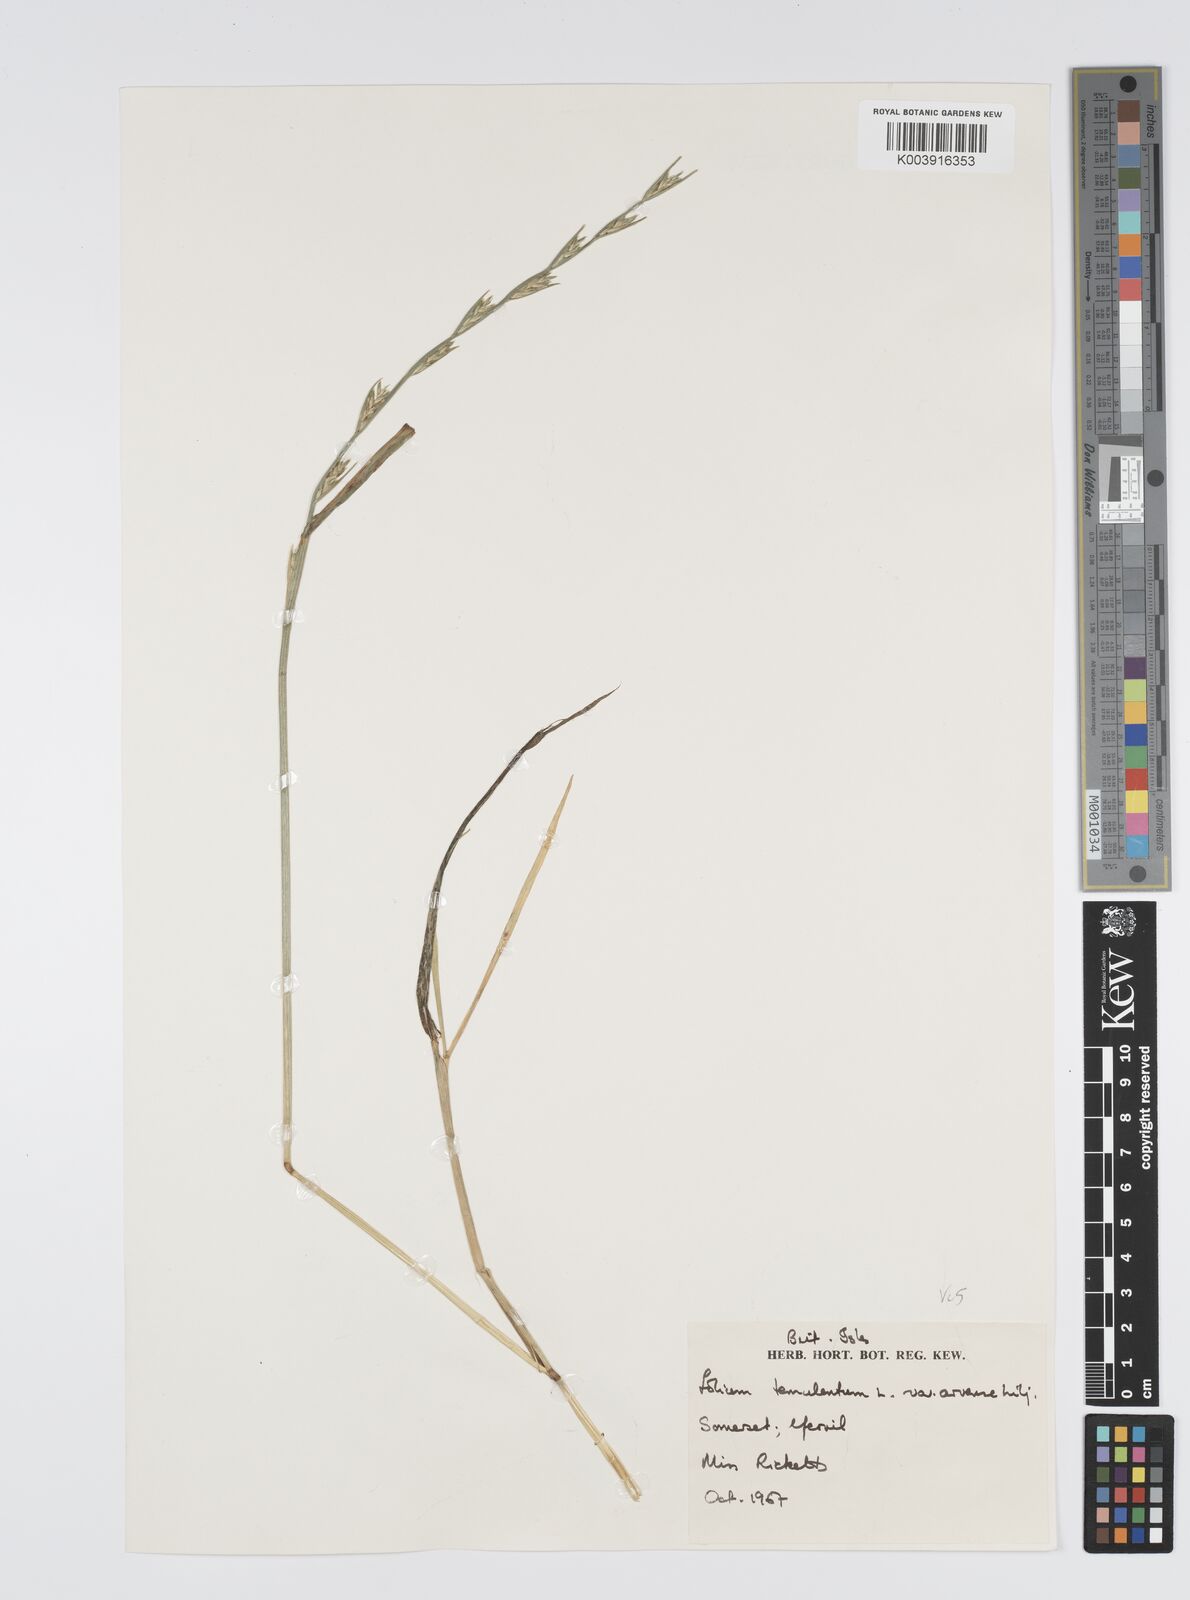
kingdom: Plantae
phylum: Tracheophyta
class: Liliopsida
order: Poales
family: Poaceae
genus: Lolium
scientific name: Lolium temulentum
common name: Darnel
